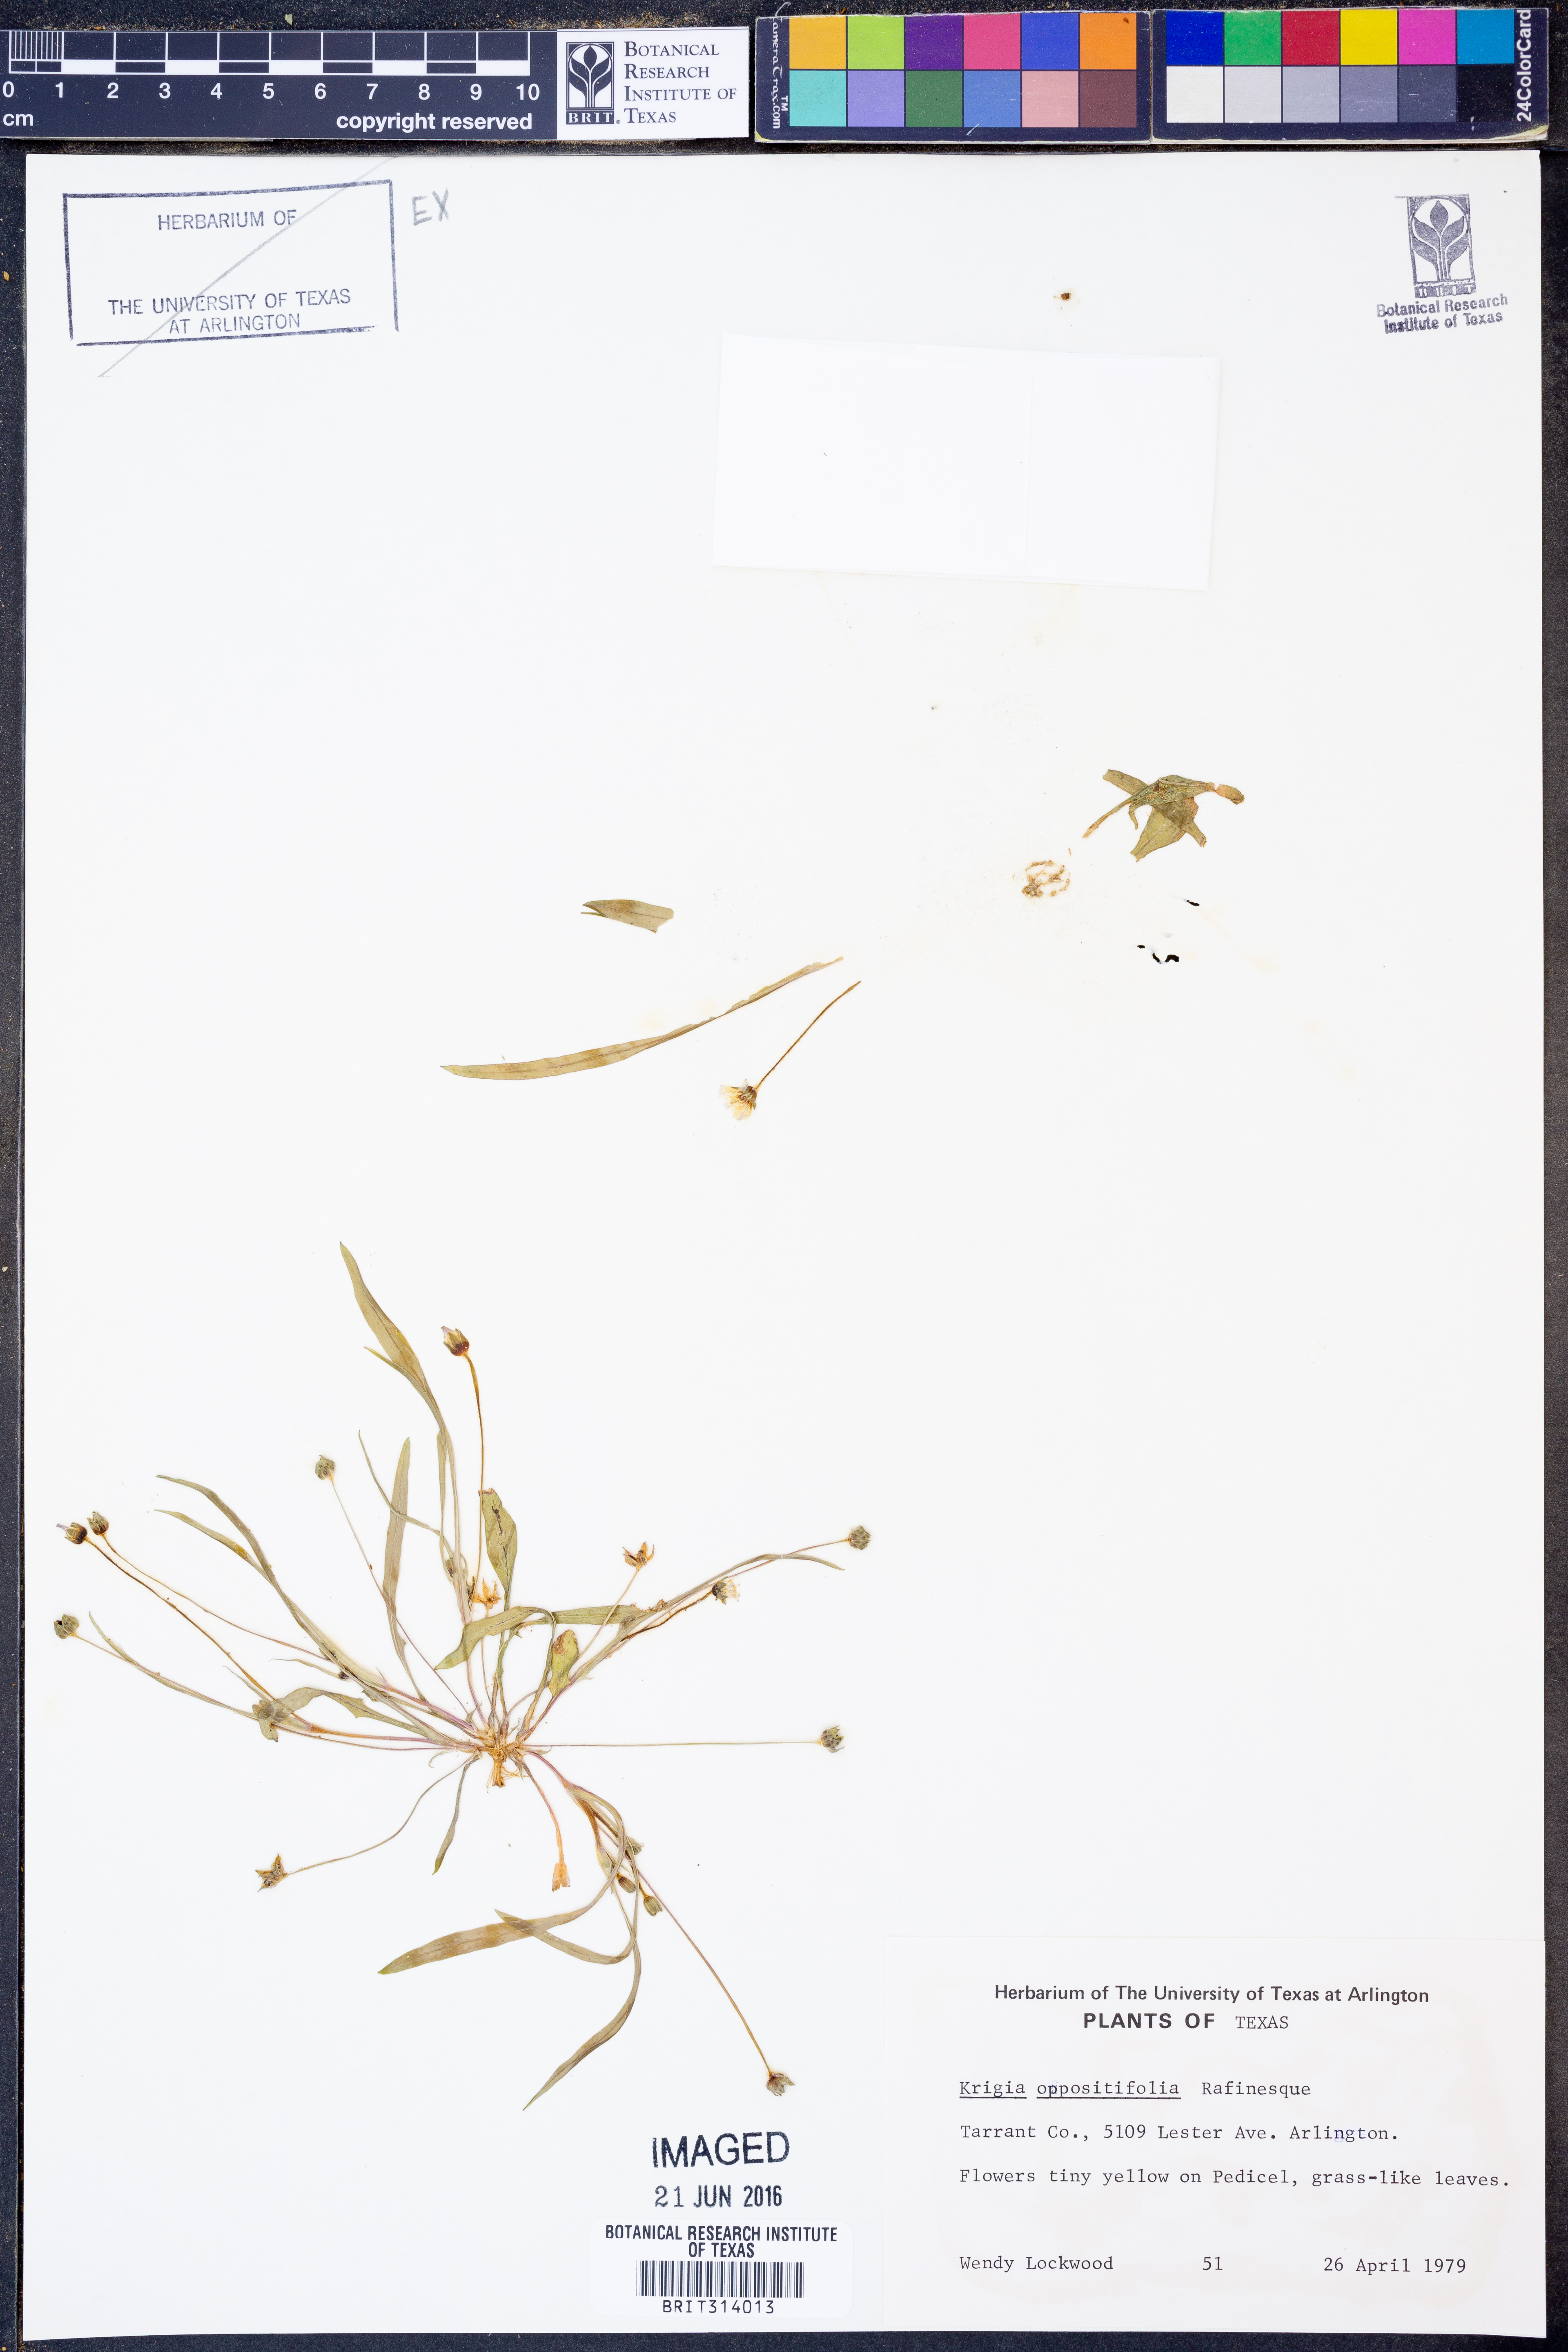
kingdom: Plantae
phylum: Tracheophyta
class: Magnoliopsida
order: Asterales
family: Asteraceae
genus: Krigia
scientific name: Krigia cespitosa
